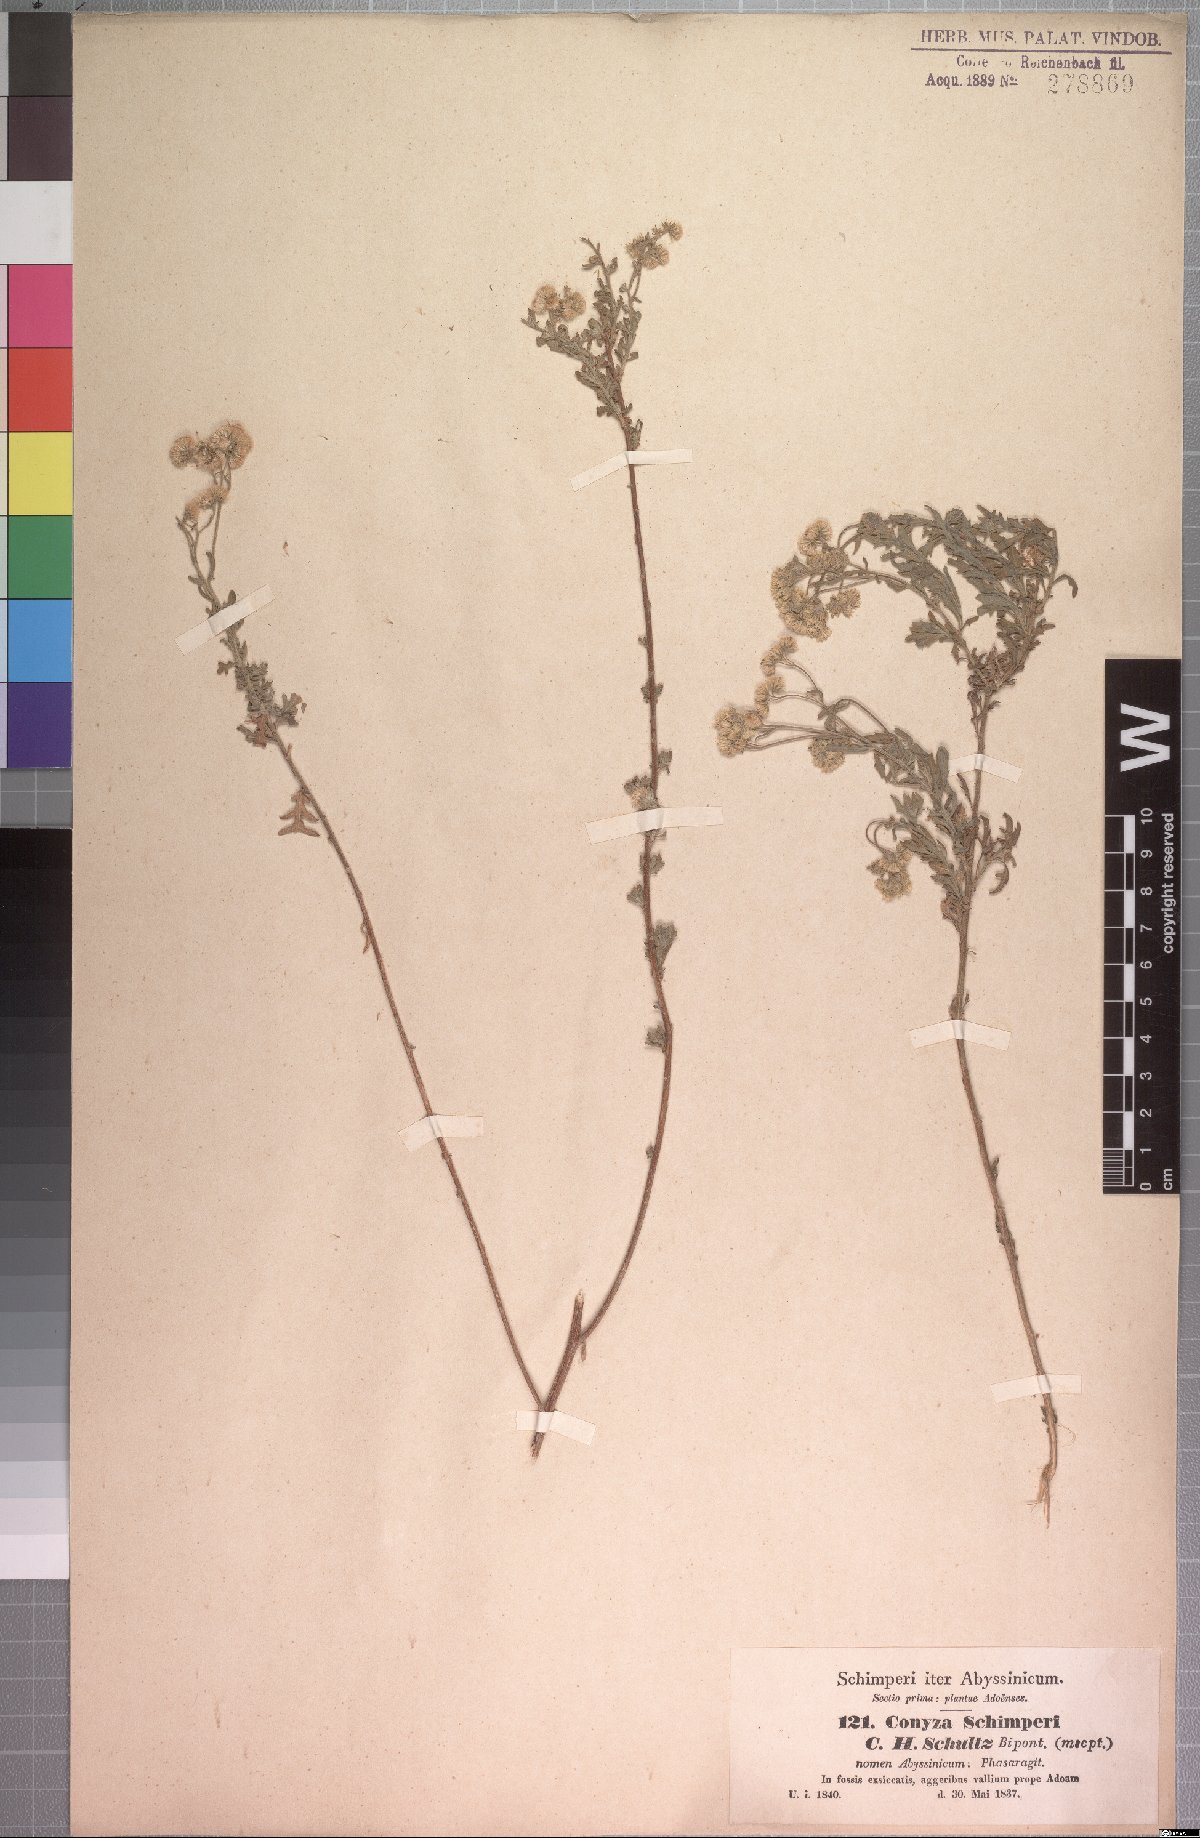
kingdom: Plantae
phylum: Tracheophyta
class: Magnoliopsida
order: Asterales
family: Asteraceae
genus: Conyza
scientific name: Conyza schimperi
